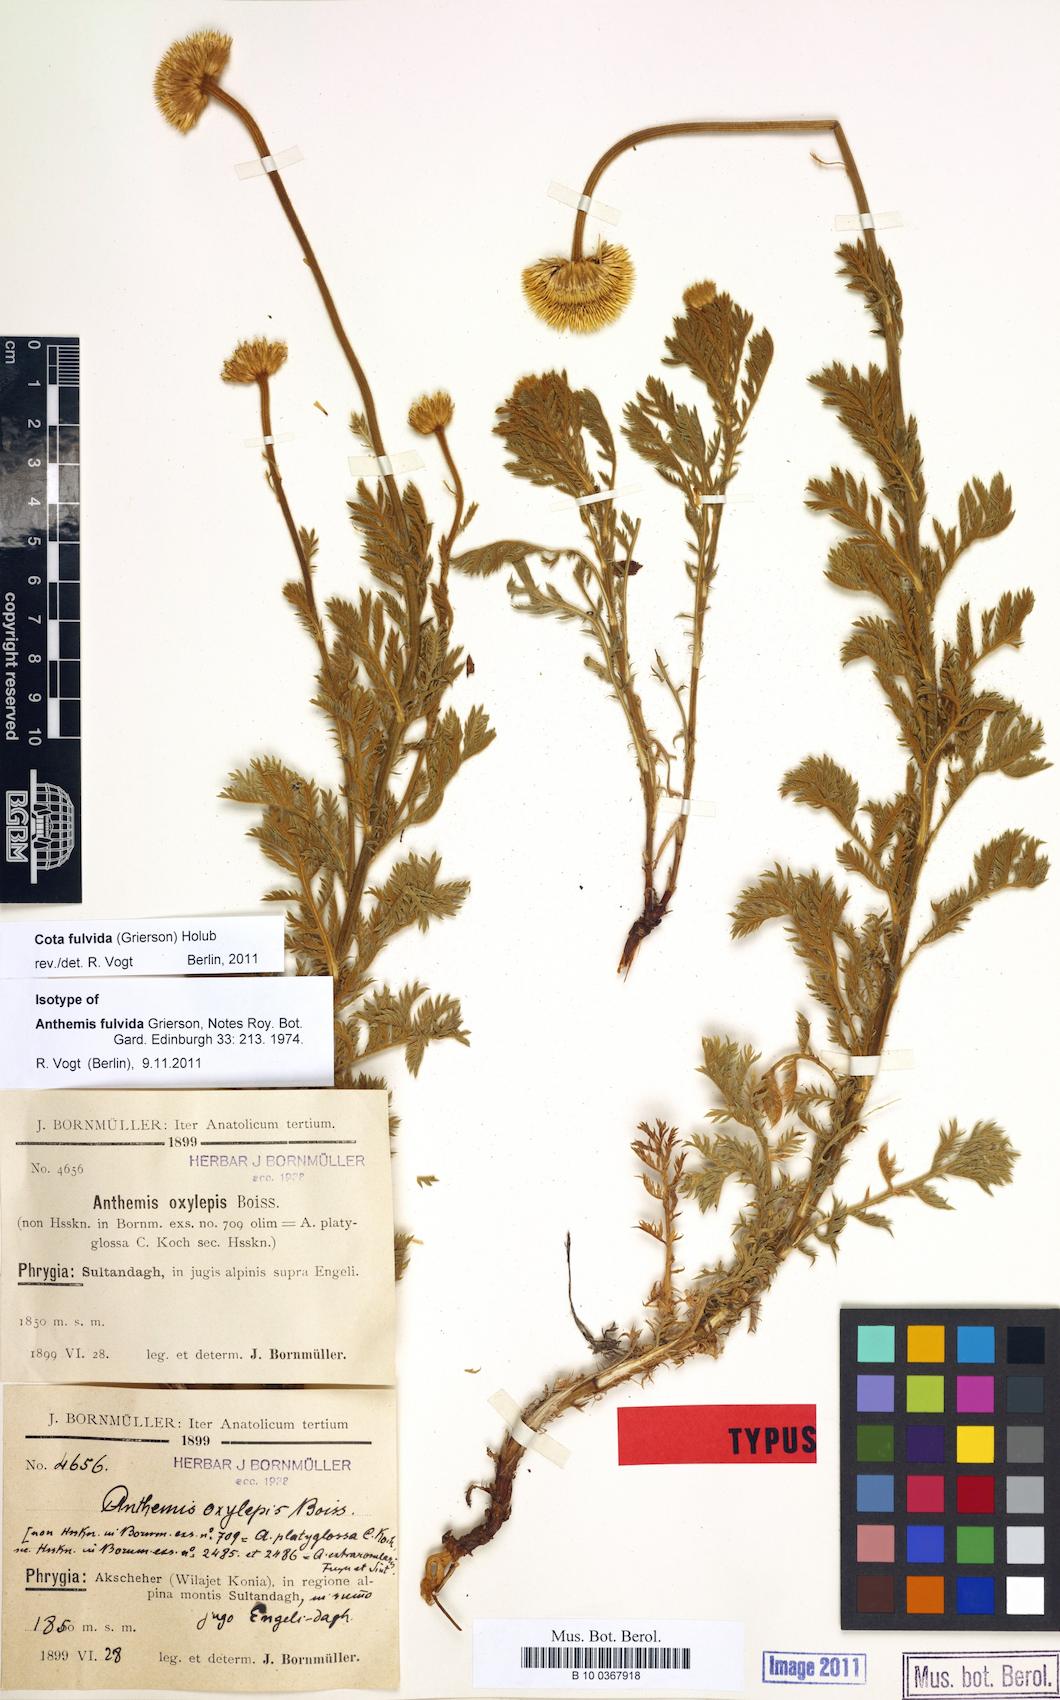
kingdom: Plantae
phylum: Tracheophyta
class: Magnoliopsida
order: Asterales
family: Asteraceae
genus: Cota
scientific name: Cota fulvida
